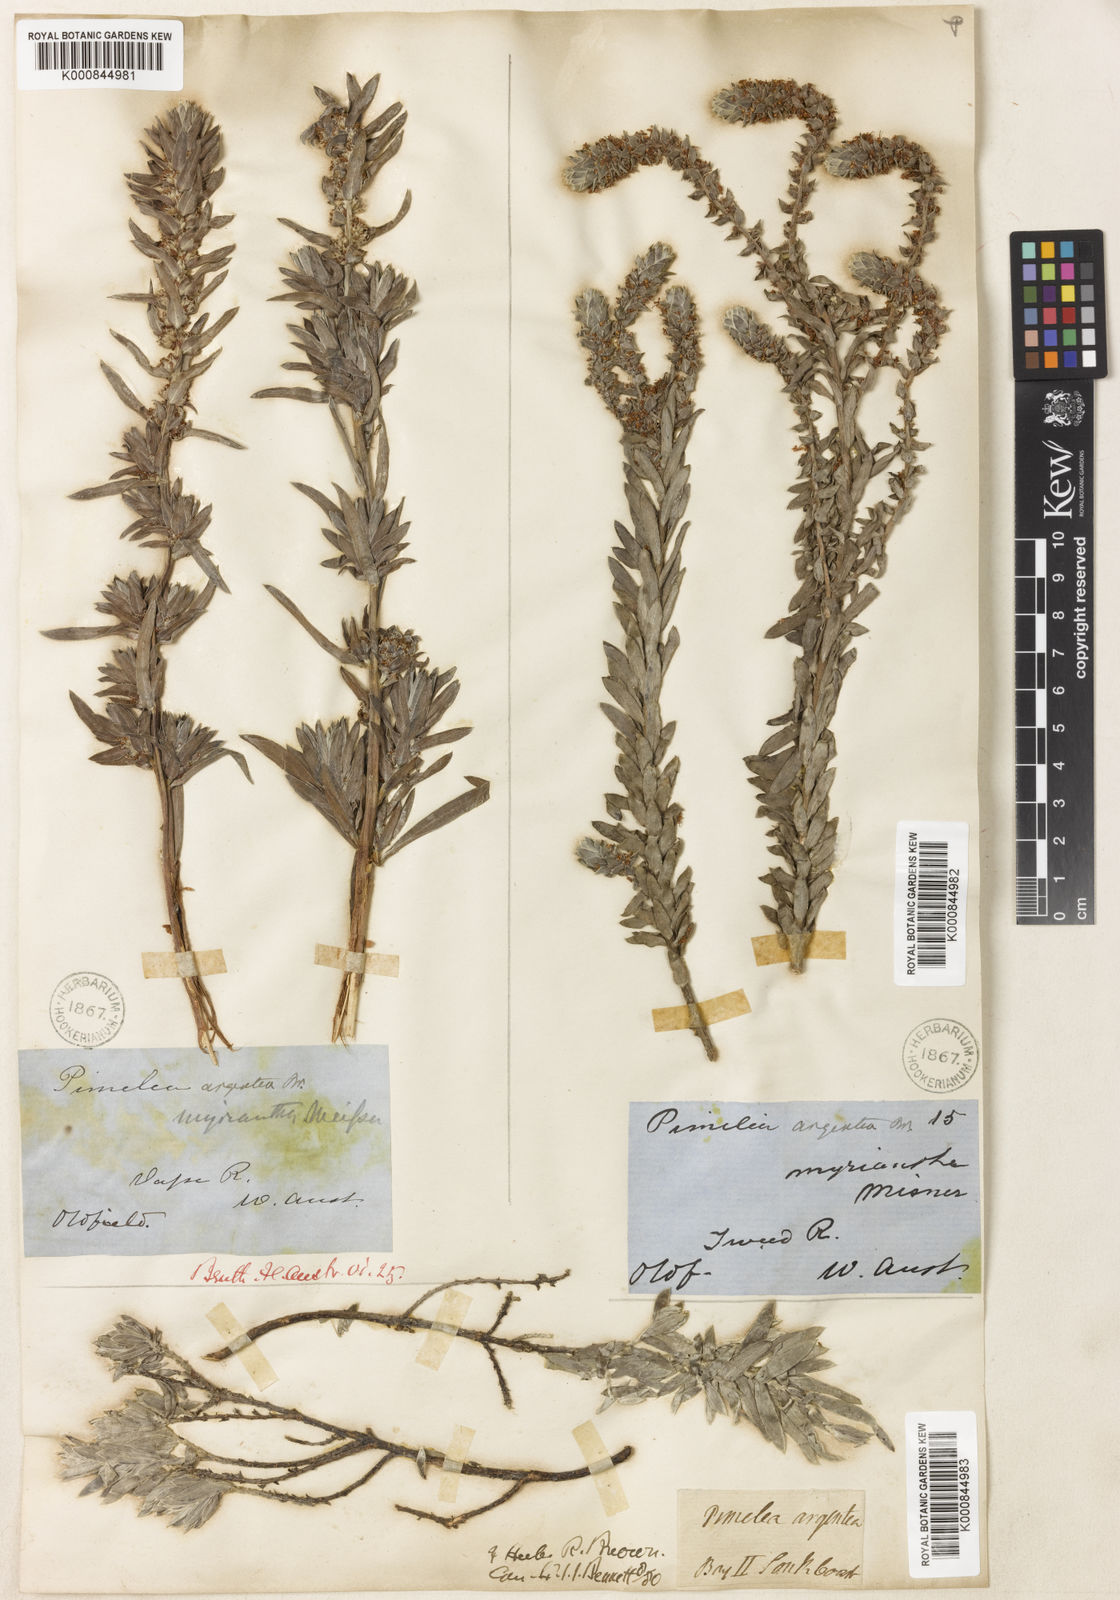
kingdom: Plantae
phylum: Tracheophyta
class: Magnoliopsida
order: Malvales
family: Thymelaeaceae
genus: Pimelea
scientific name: Pimelea argentea
